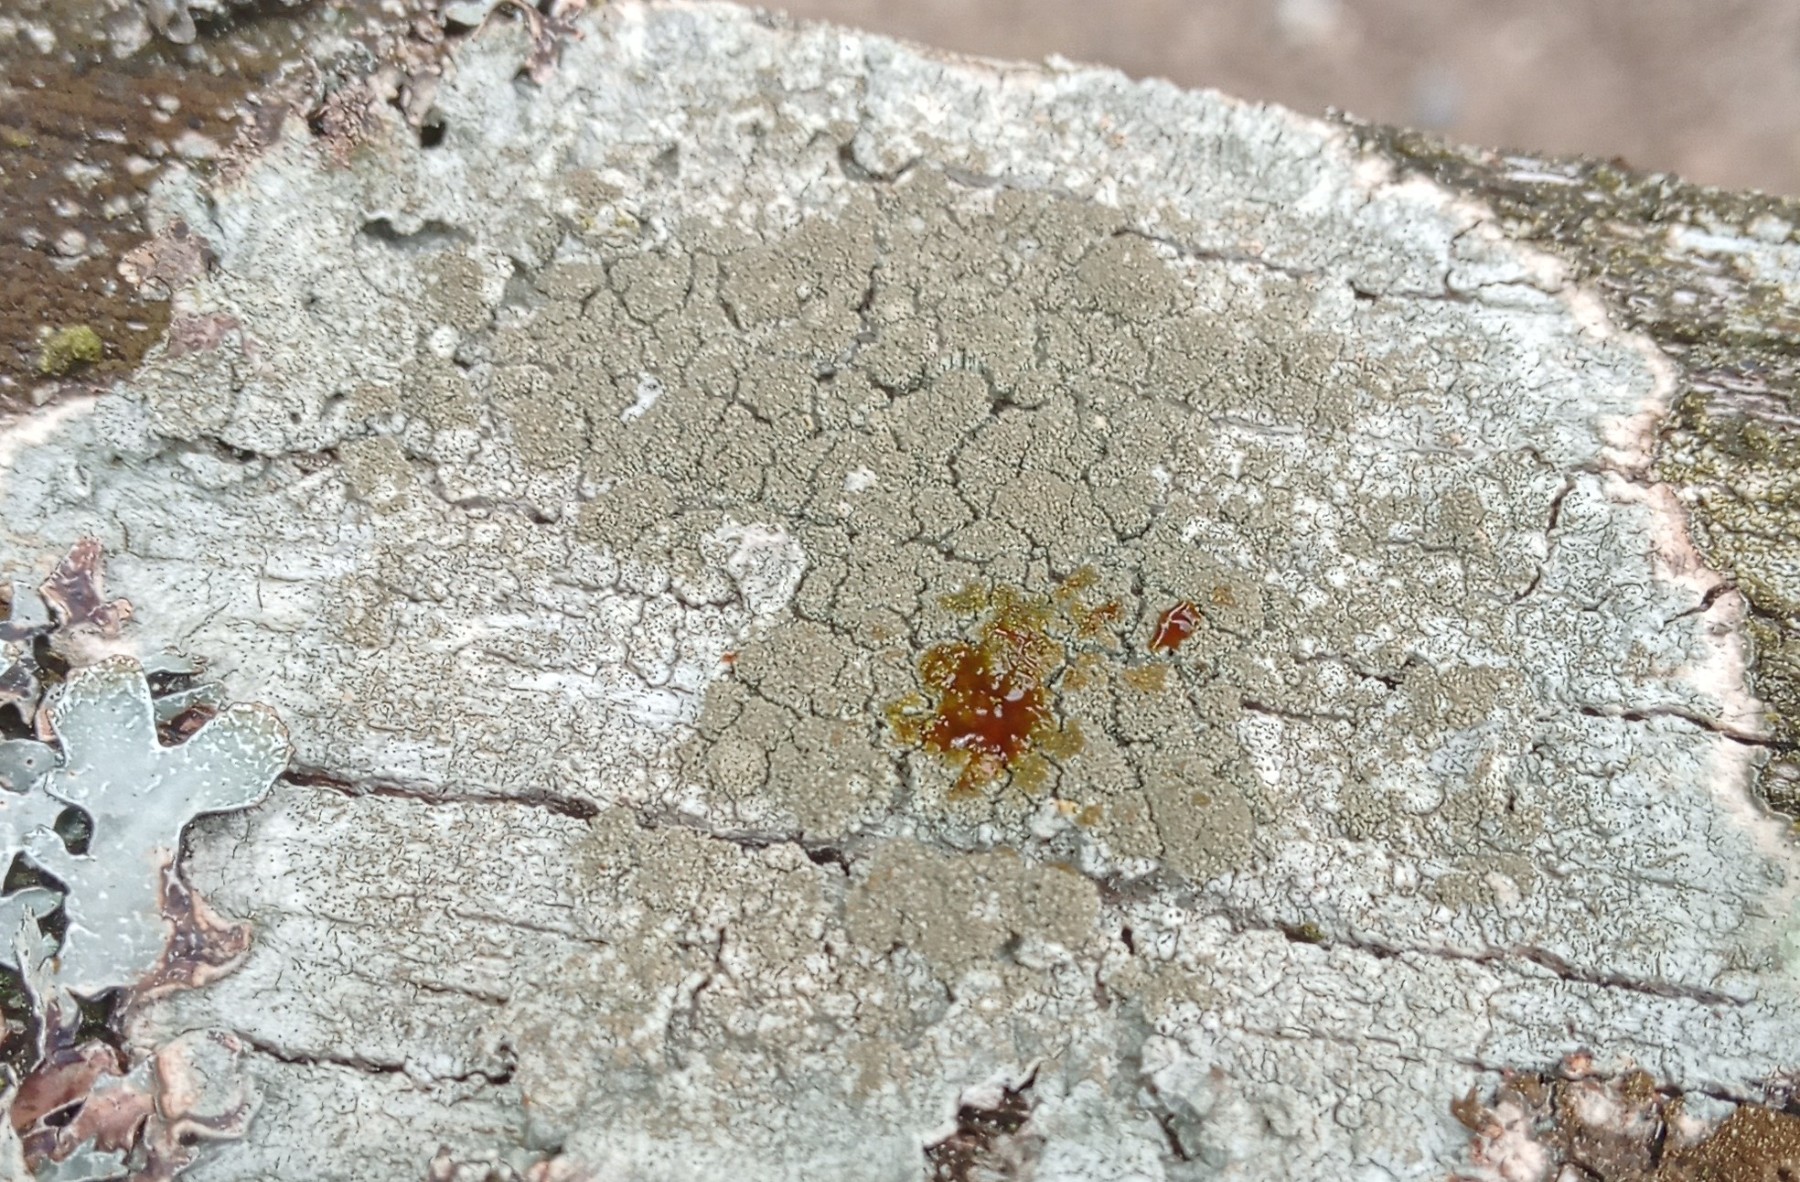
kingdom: Fungi
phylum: Ascomycota
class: Lecanoromycetes
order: Pertusariales
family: Pertusariaceae
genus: Pertusaria
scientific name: Pertusaria coccodes
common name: skurvet prikvortelav
